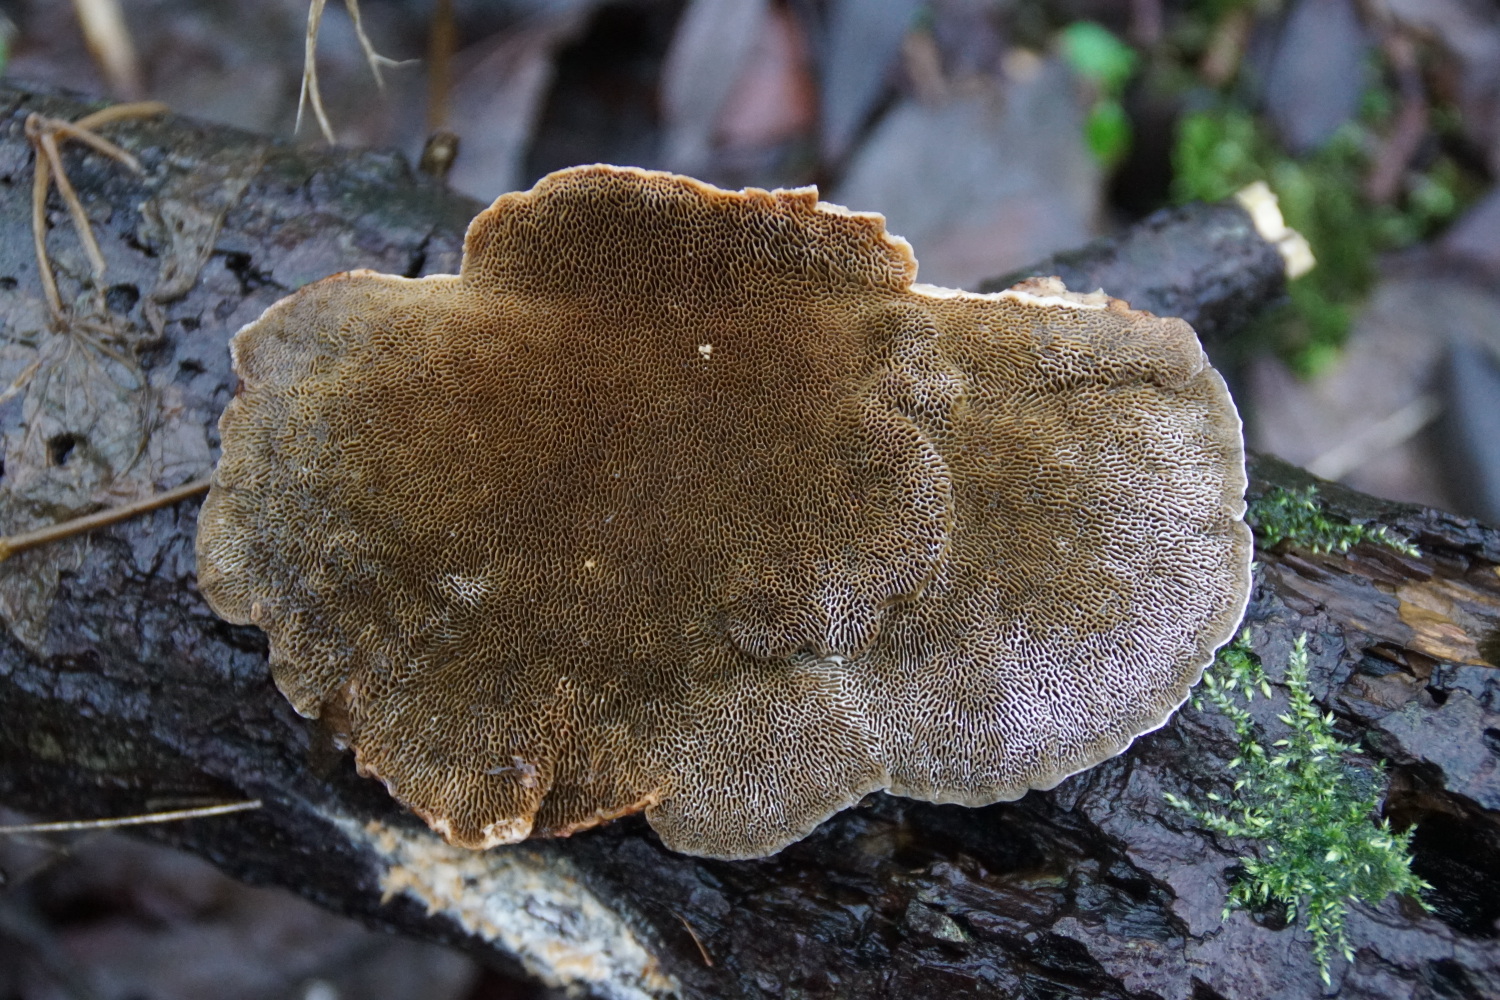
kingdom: Fungi
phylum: Basidiomycota
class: Agaricomycetes
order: Polyporales
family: Polyporaceae
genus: Daedaleopsis
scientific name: Daedaleopsis confragosa
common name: rødmende læderporesvamp
